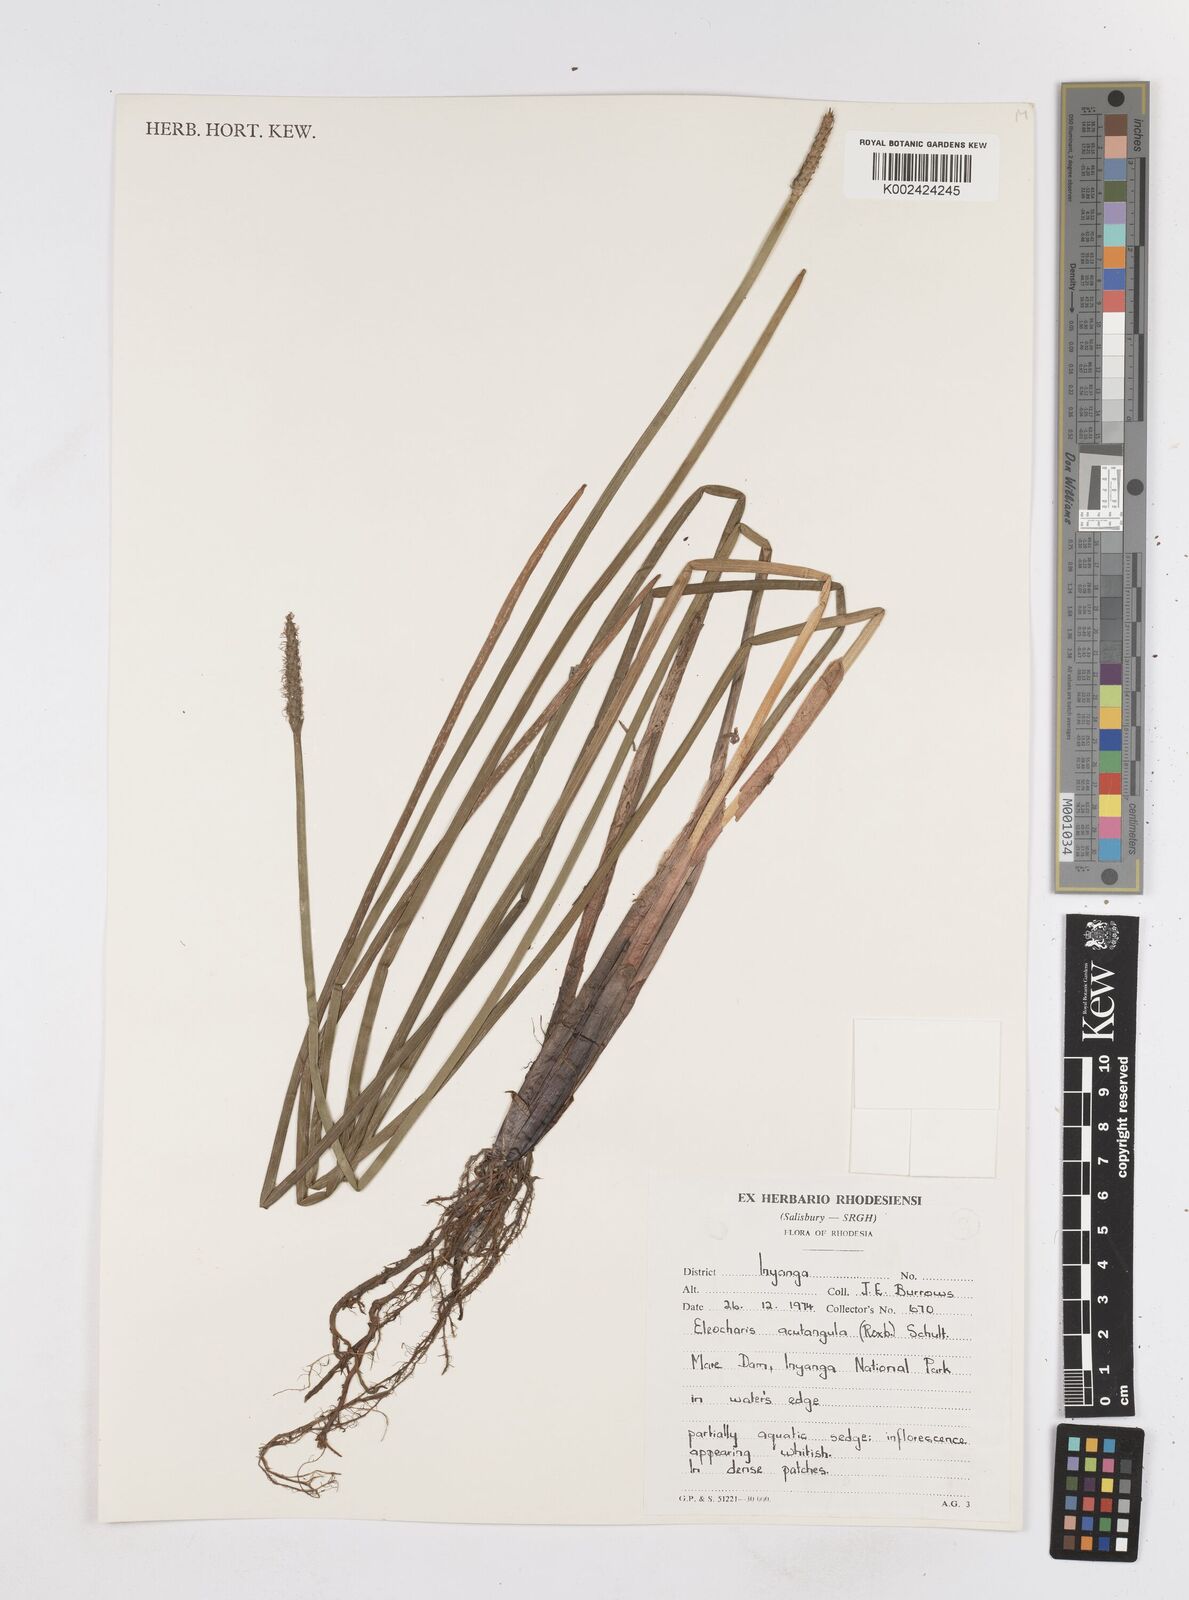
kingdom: Plantae
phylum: Tracheophyta
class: Liliopsida
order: Poales
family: Cyperaceae
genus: Eleocharis
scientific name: Eleocharis acutangula
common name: Acute spikerush
